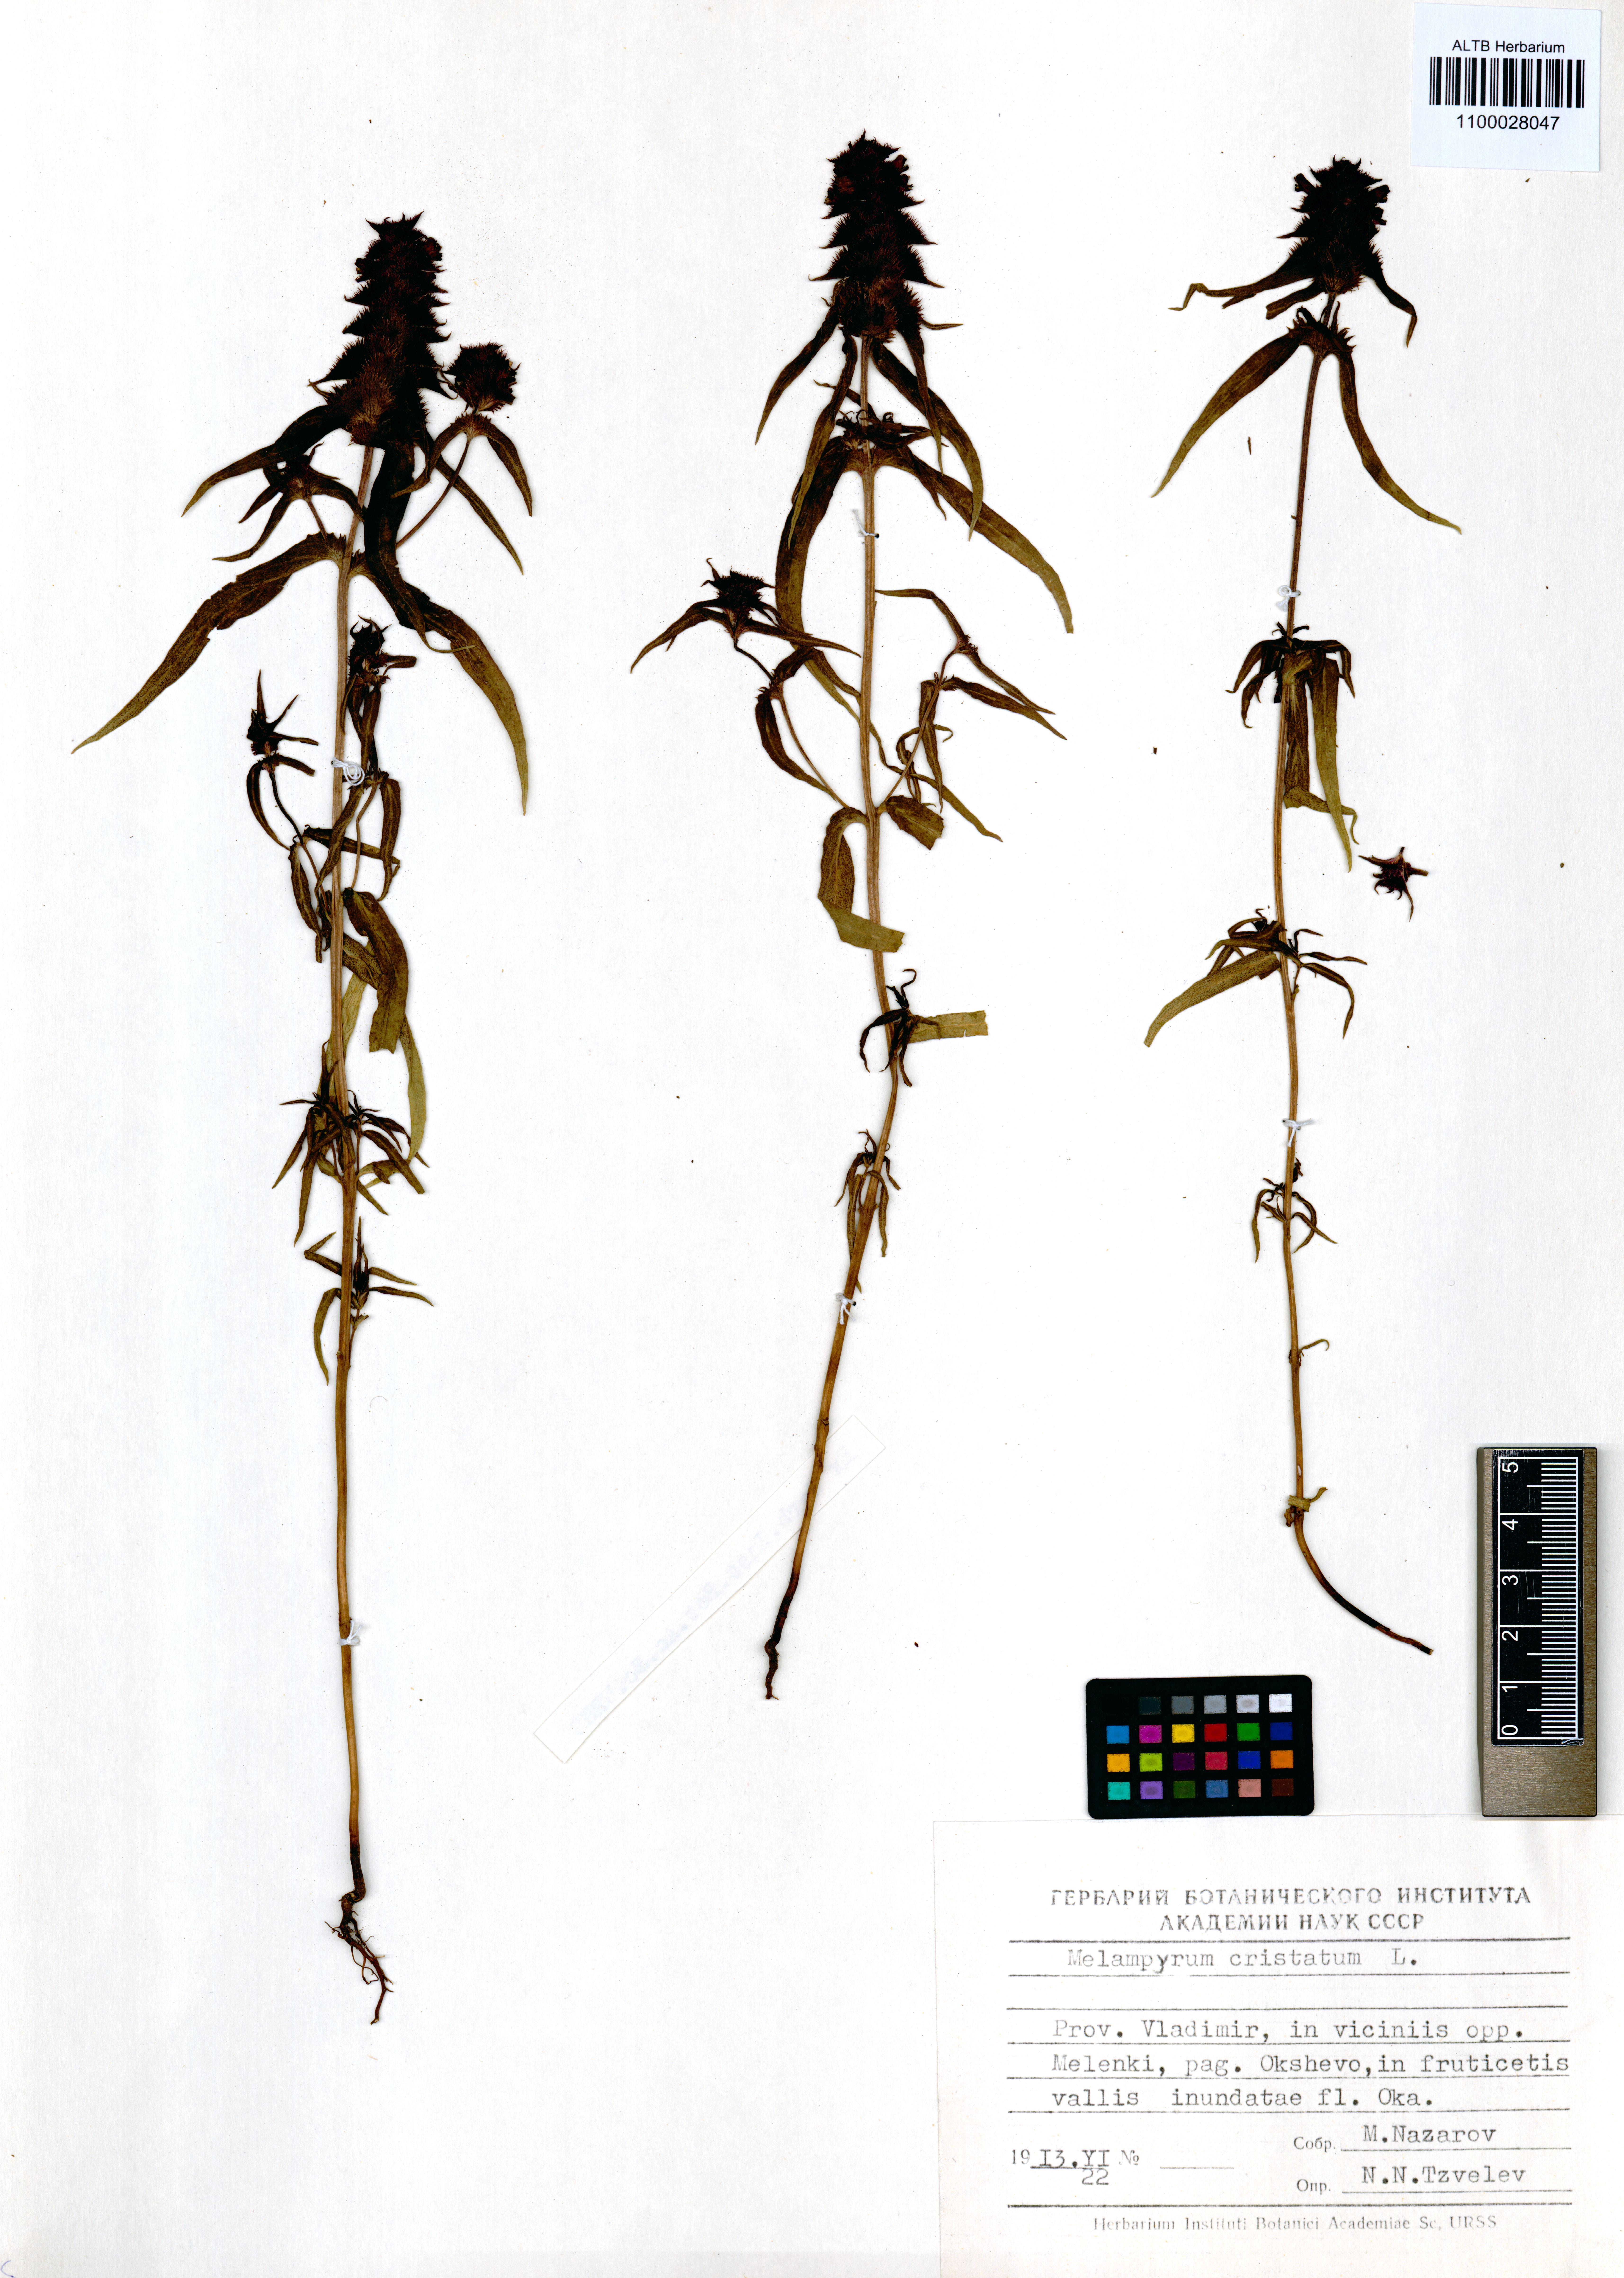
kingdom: Plantae
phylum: Tracheophyta
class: Magnoliopsida
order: Lamiales
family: Orobanchaceae
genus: Melampyrum
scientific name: Melampyrum cristatum
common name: Crested cow-wheat
